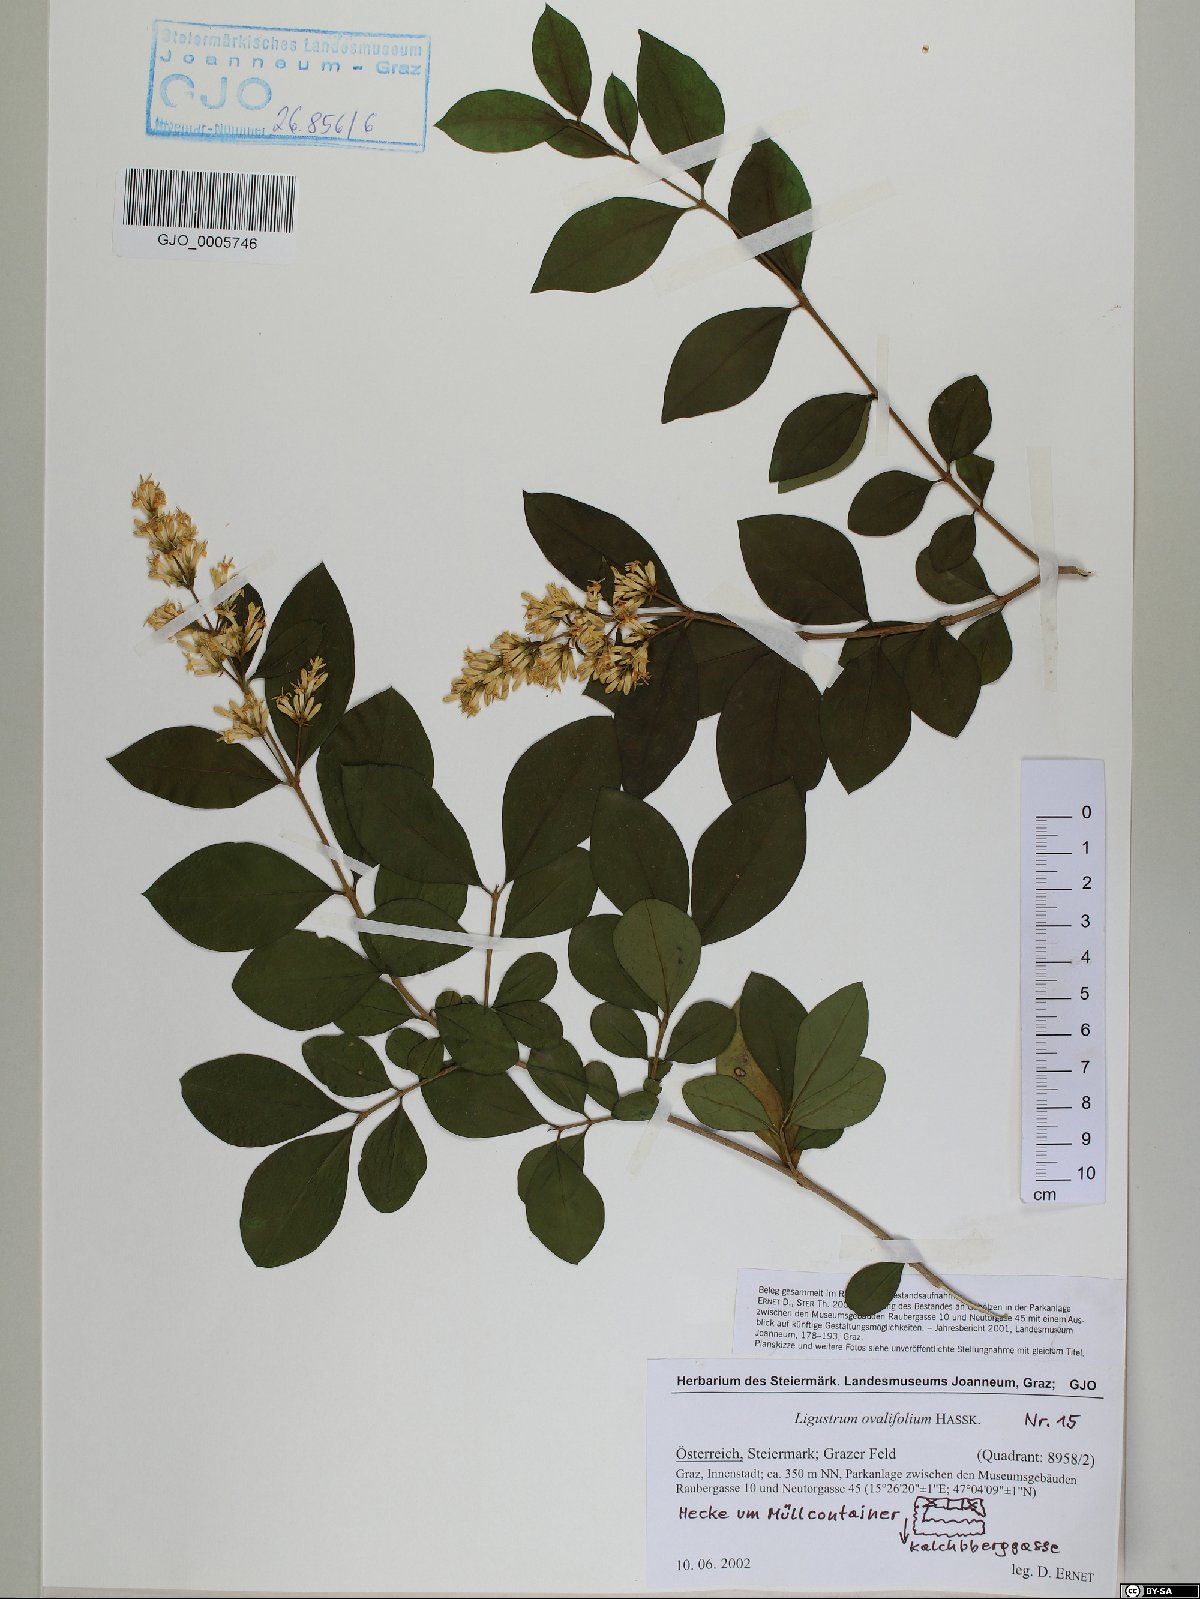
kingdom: Plantae
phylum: Tracheophyta
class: Magnoliopsida
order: Lamiales
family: Oleaceae
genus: Ligustrum
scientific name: Ligustrum ovalifolium
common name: California privet
